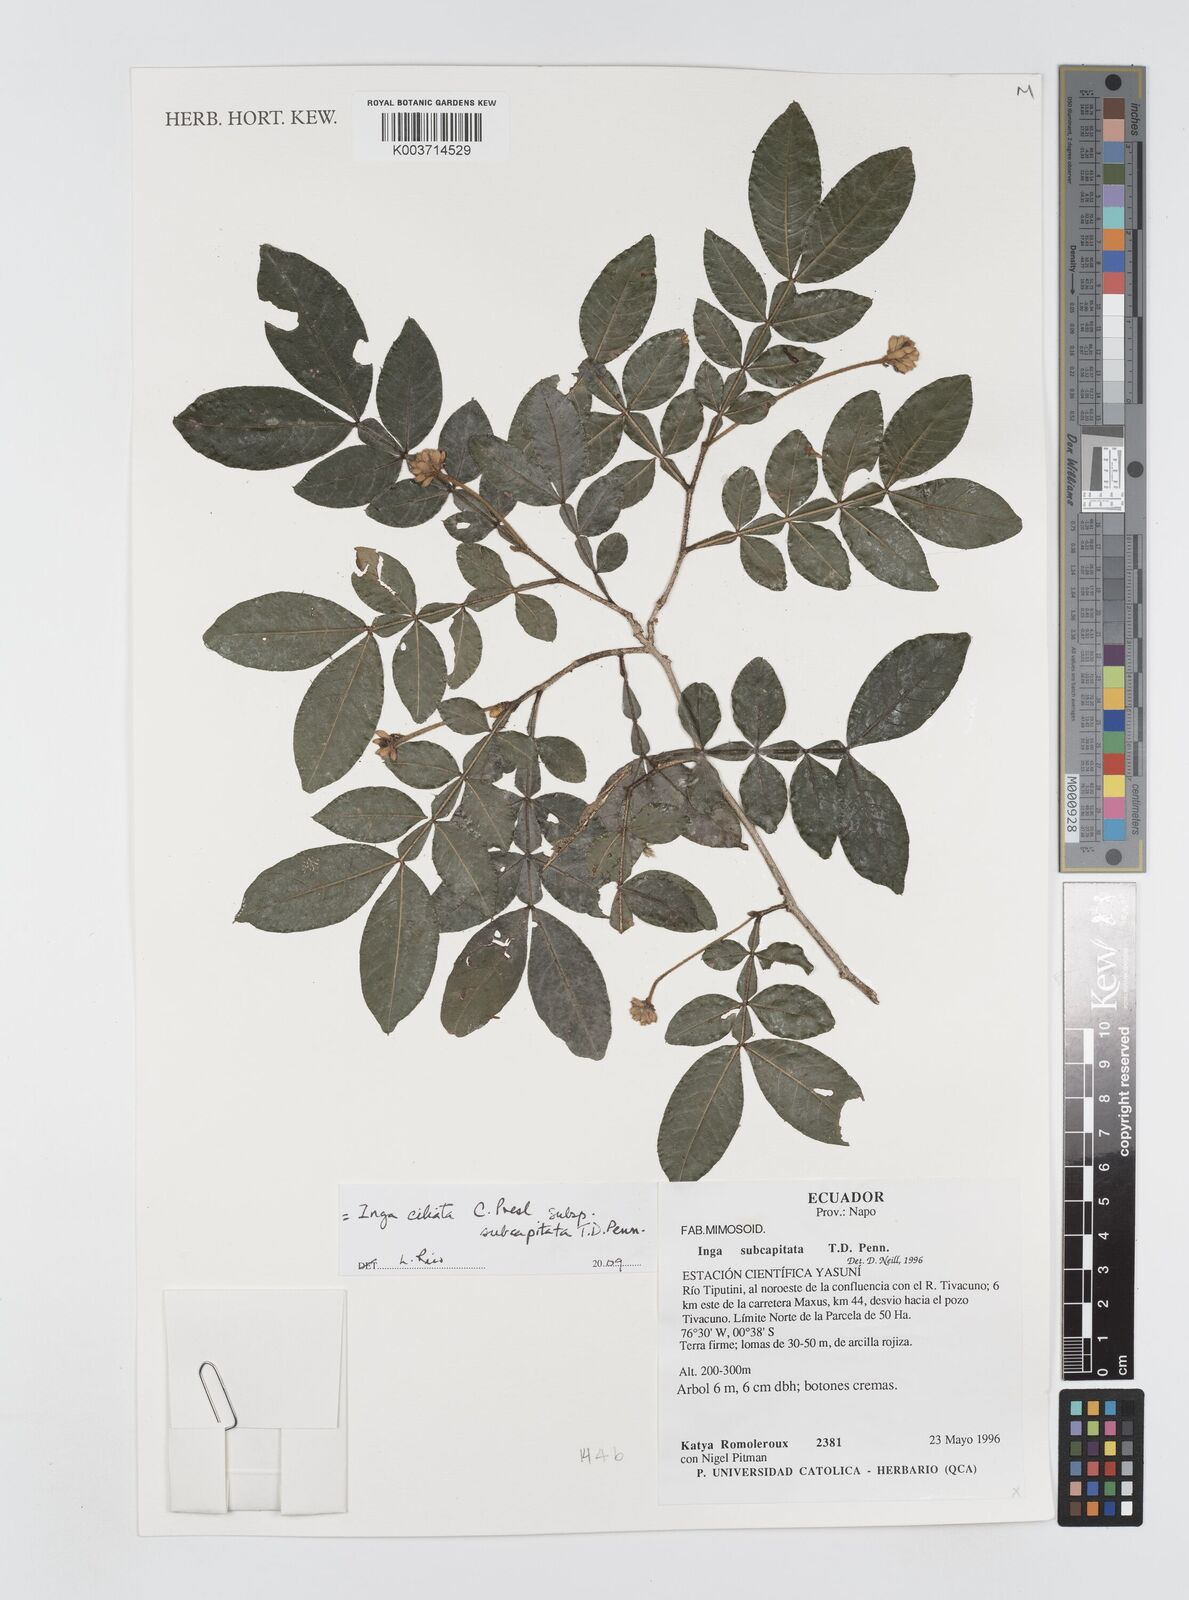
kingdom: Plantae
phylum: Tracheophyta
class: Magnoliopsida
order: Fabales
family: Fabaceae
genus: Inga
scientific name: Inga ciliata
